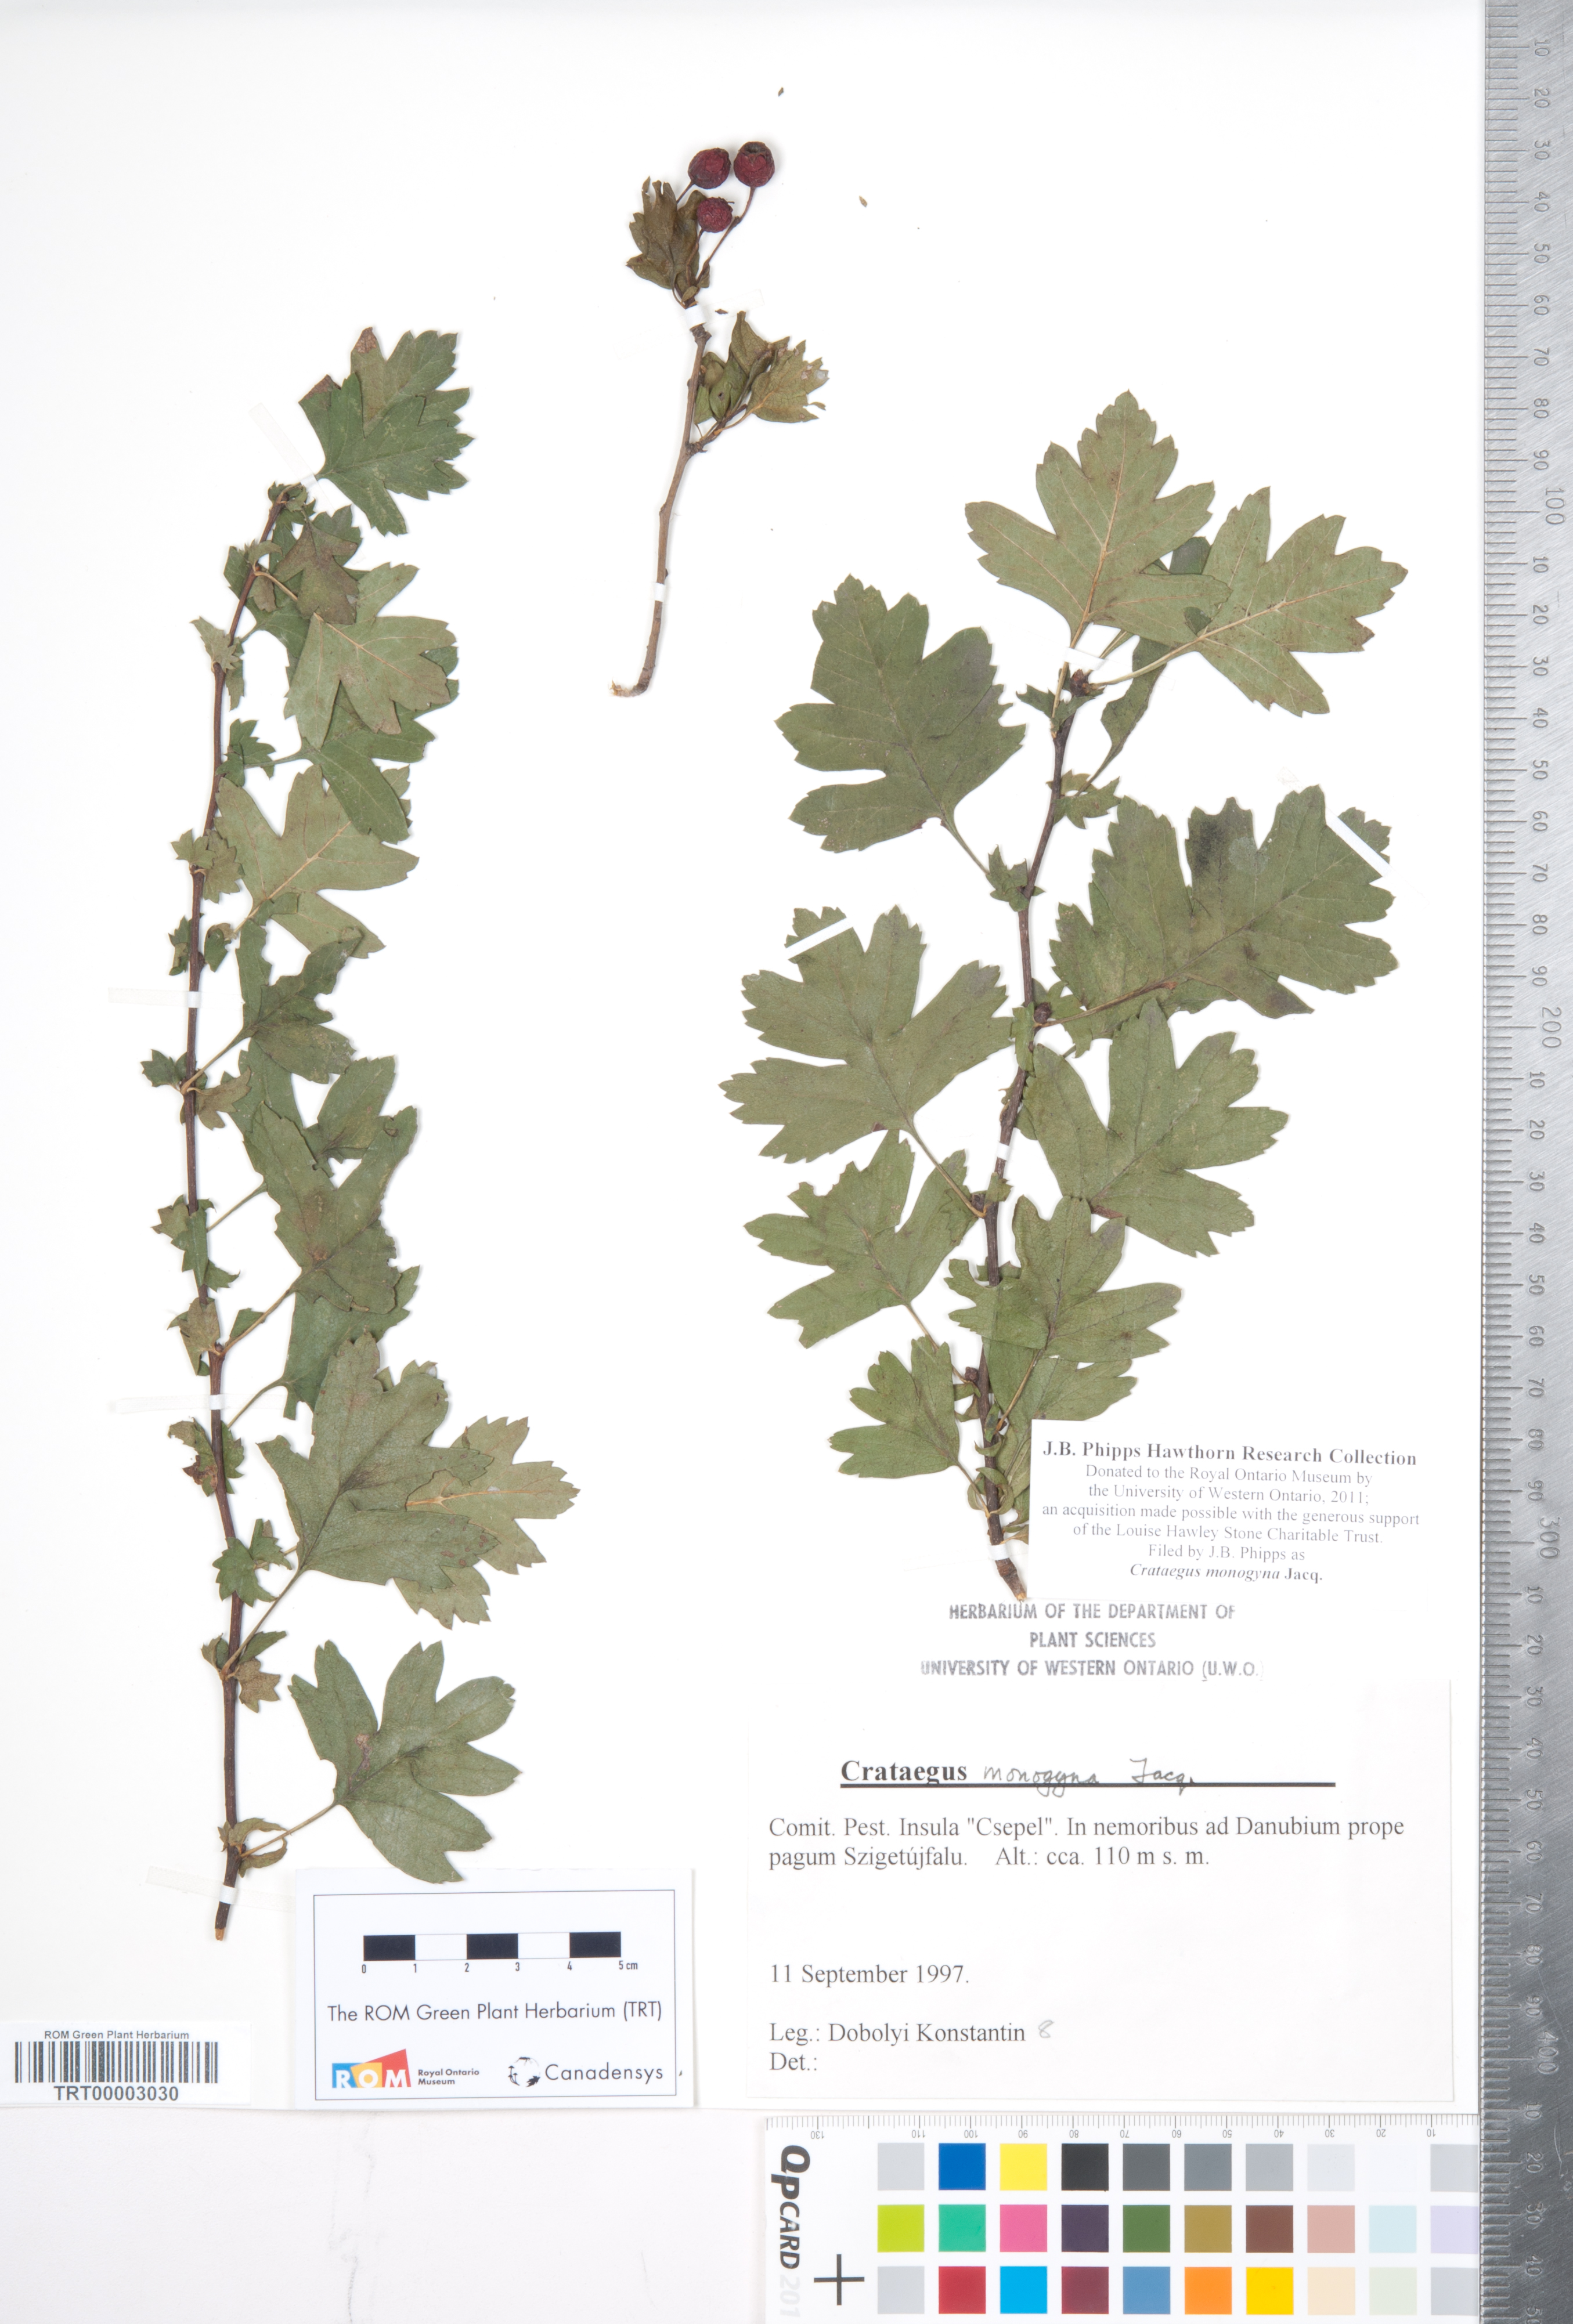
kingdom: Plantae
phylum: Tracheophyta
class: Magnoliopsida
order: Rosales
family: Rosaceae
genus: Crataegus
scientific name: Crataegus monogyna
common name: Hawthorn
